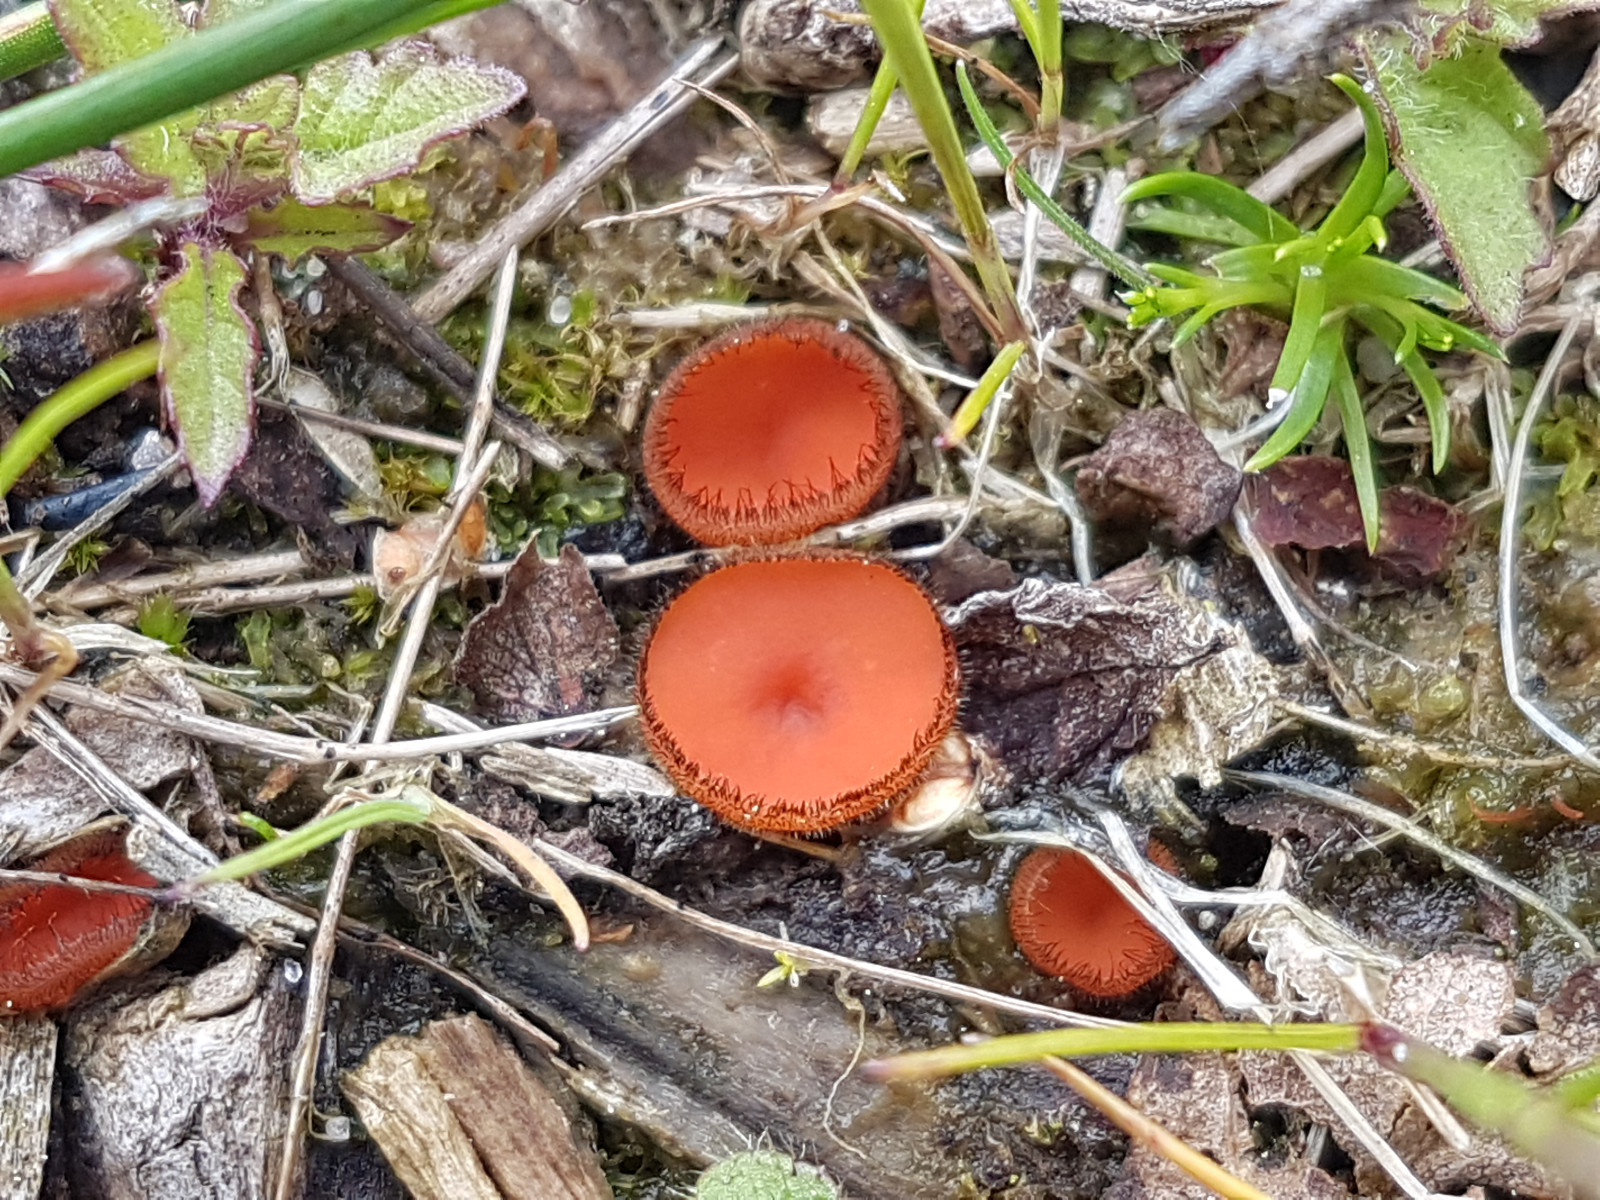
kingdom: Fungi
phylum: Ascomycota
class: Pezizomycetes
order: Pezizales
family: Pyronemataceae
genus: Scutellinia
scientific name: Scutellinia scutellata
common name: frynset skjoldbæger
